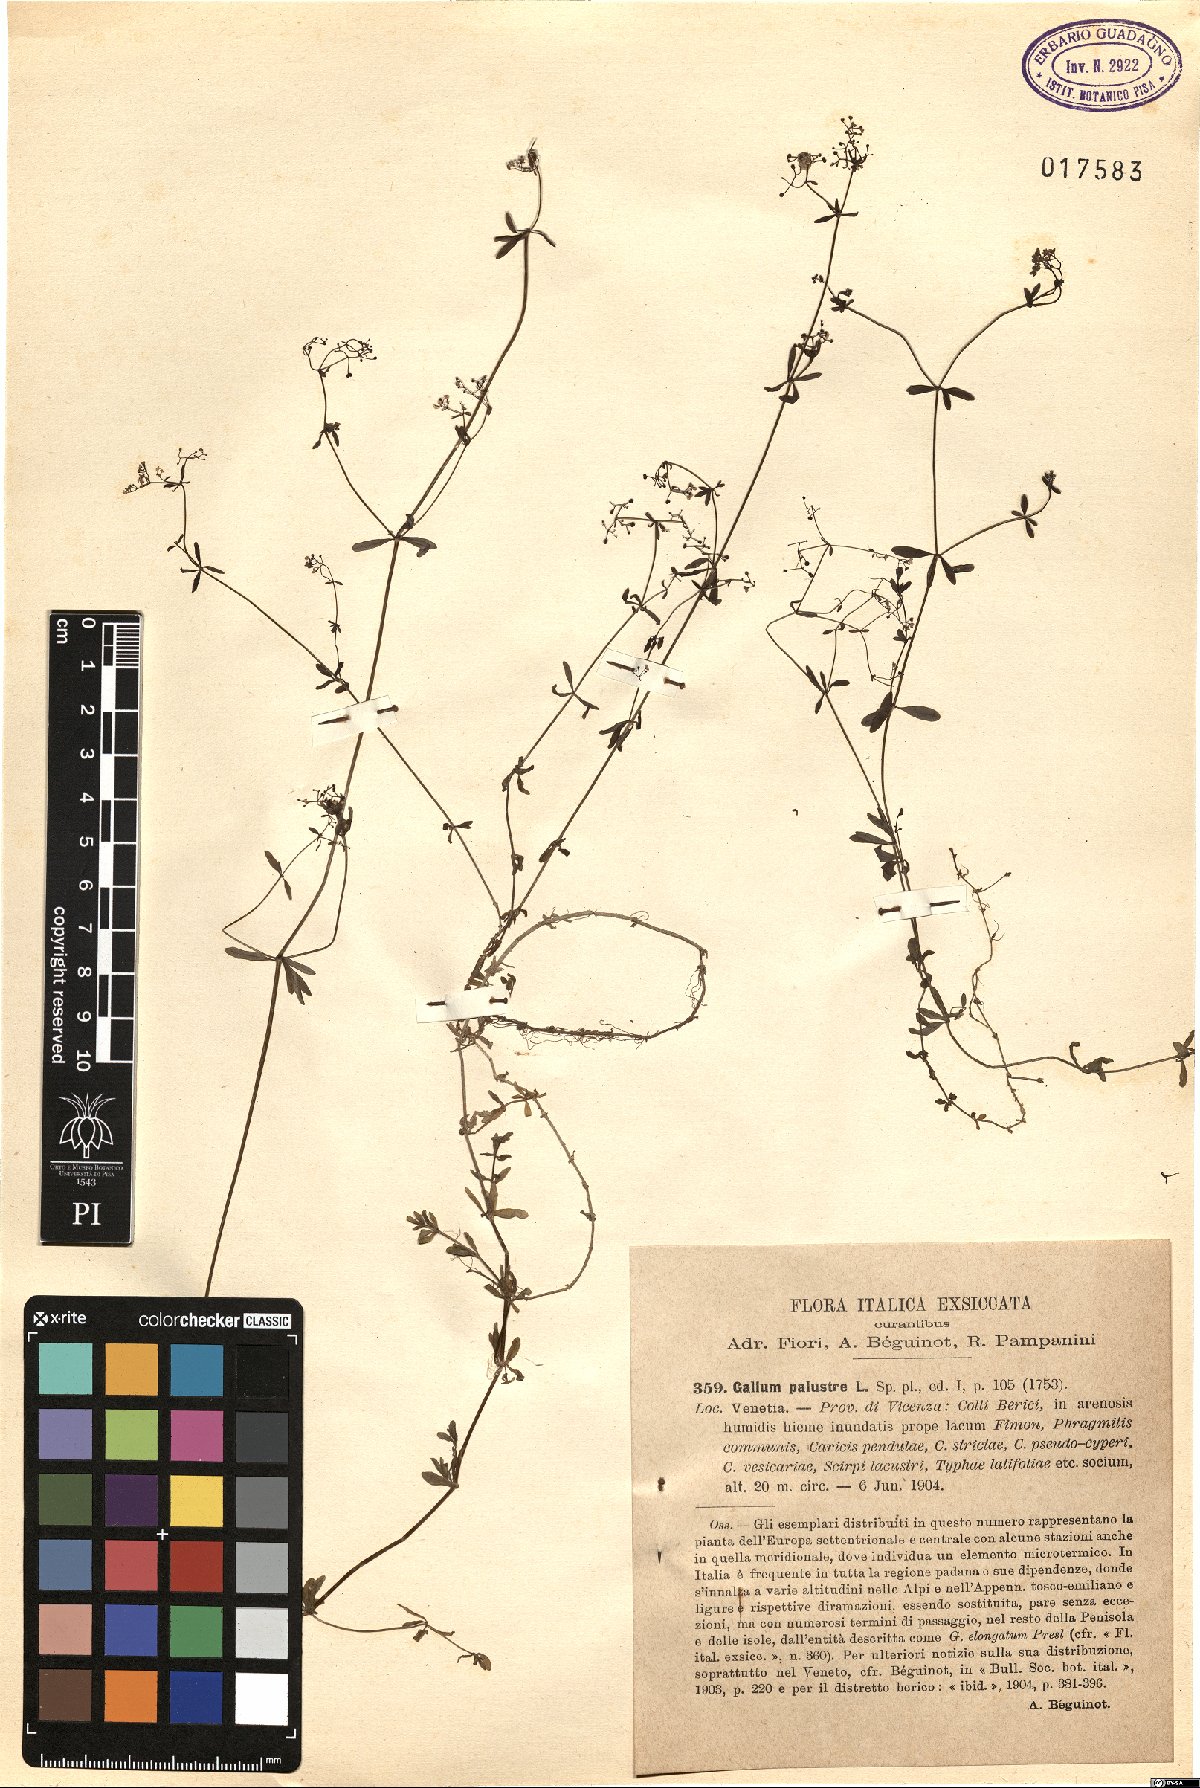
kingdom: Plantae
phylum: Tracheophyta
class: Magnoliopsida
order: Gentianales
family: Rubiaceae
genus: Galium
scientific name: Galium palustre
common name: Common marsh-bedstraw
